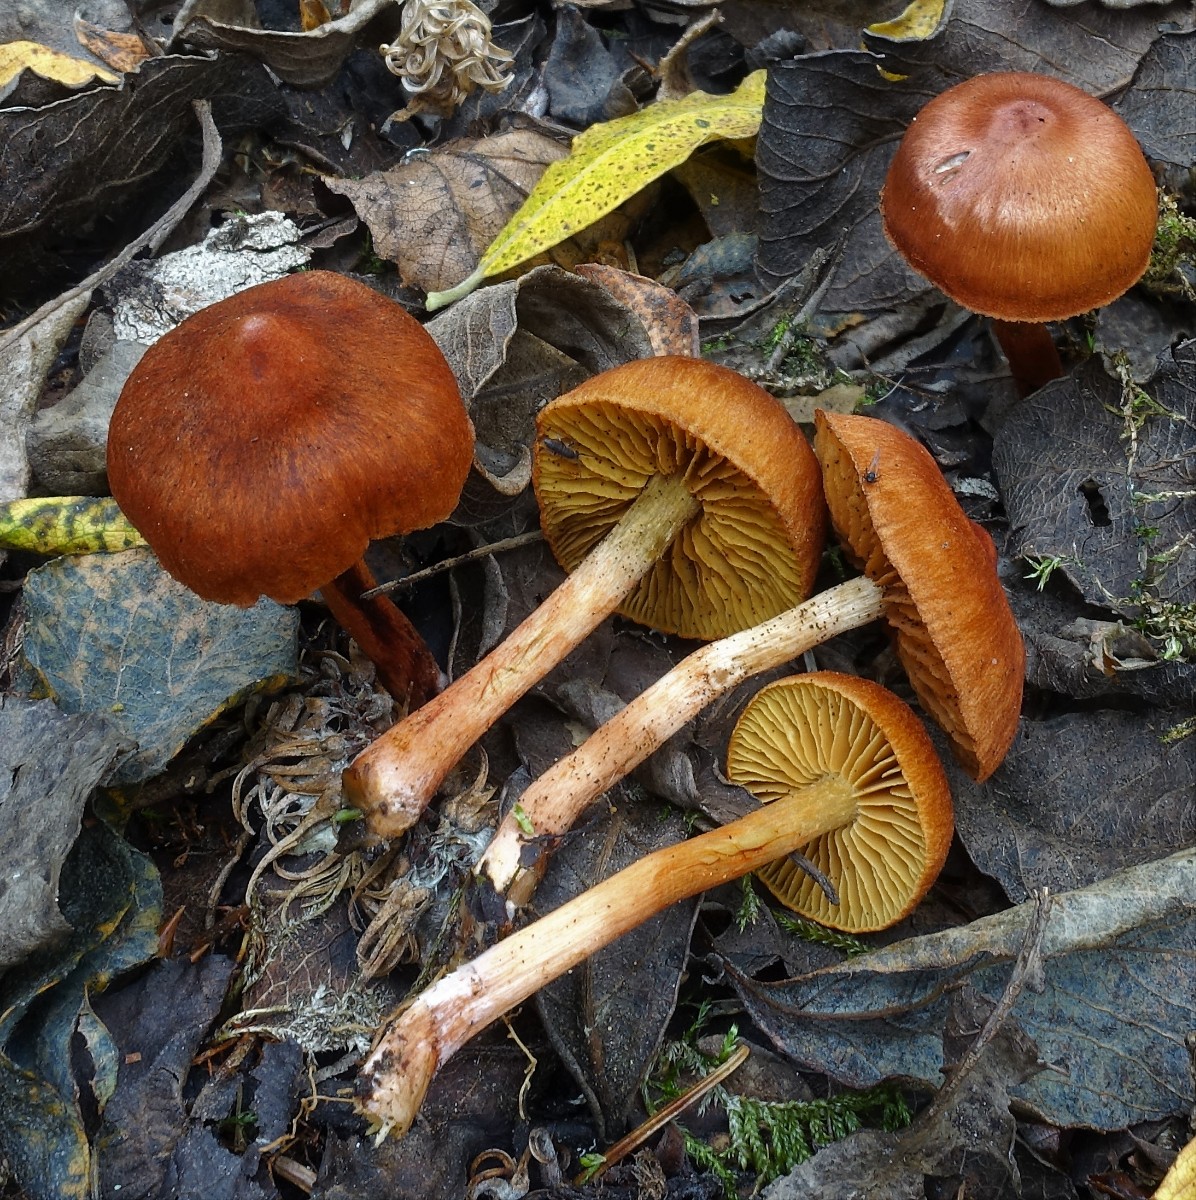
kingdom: Fungi
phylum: Basidiomycota
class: Agaricomycetes
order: Agaricales
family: Cortinariaceae
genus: Cortinarius
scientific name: Cortinarius uliginosus
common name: mose-slørhat
